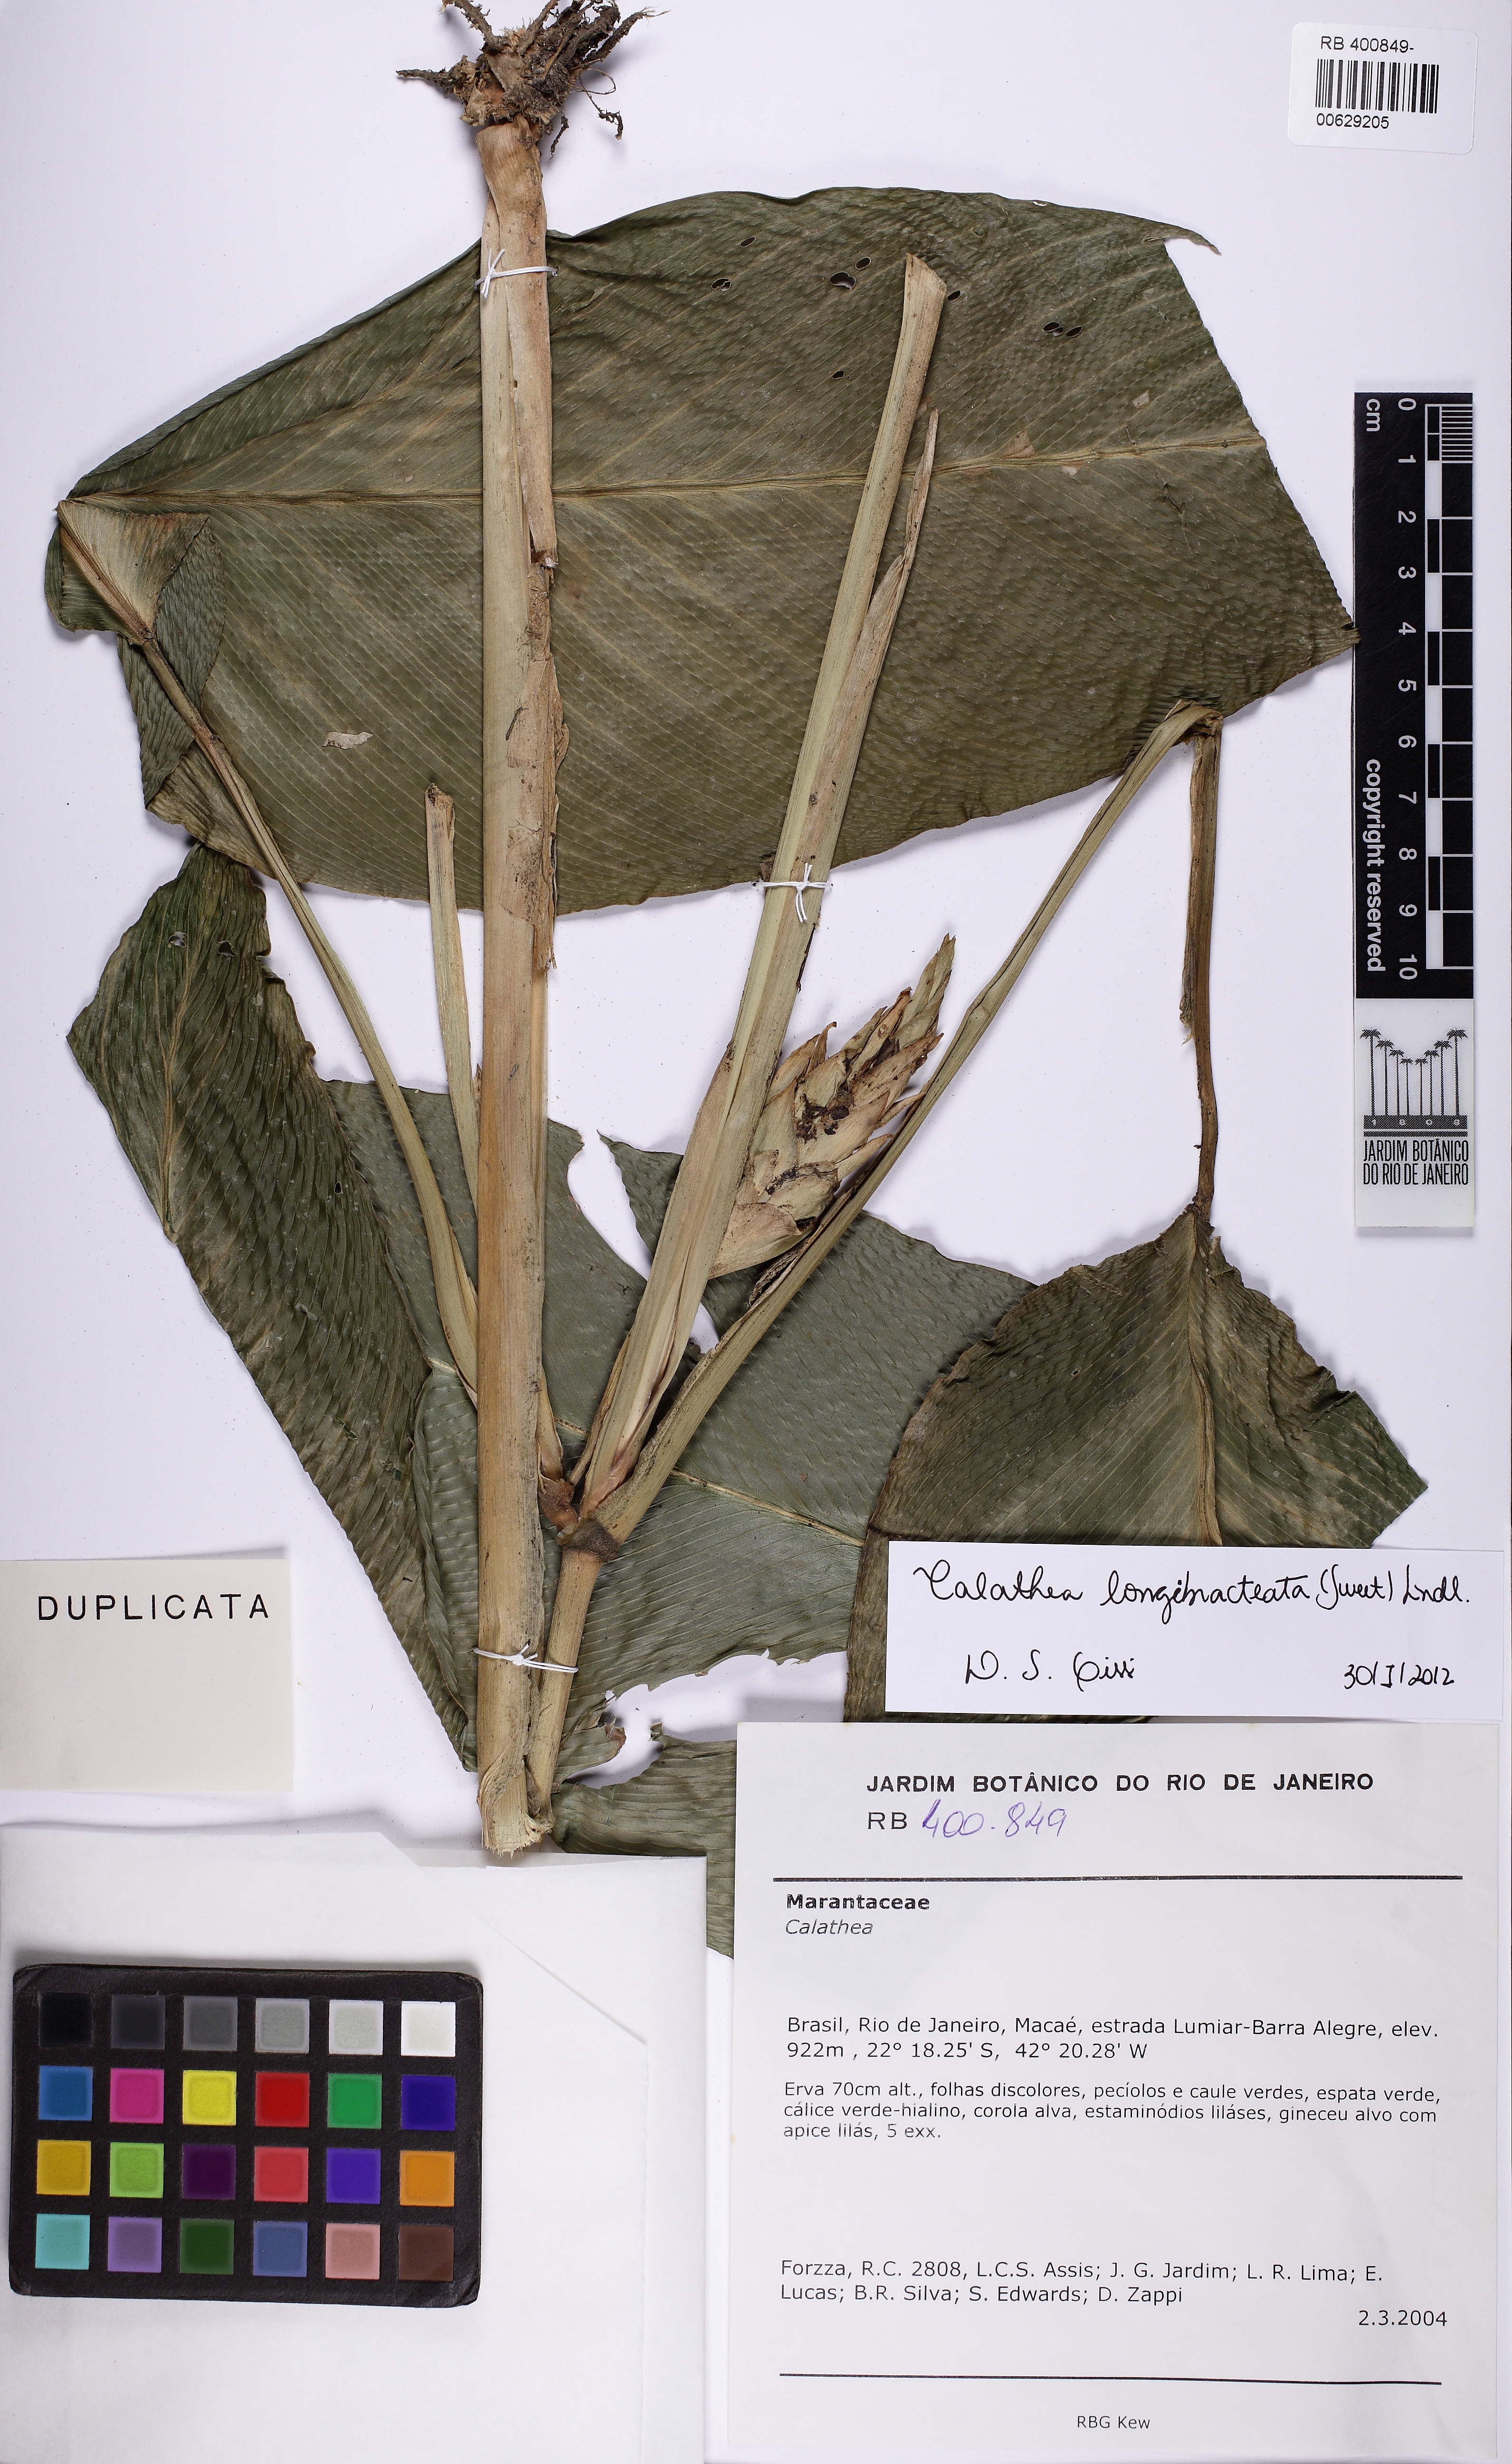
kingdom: Plantae
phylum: Tracheophyta
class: Liliopsida
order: Zingiberales
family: Marantaceae
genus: Goeppertia
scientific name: Goeppertia longibracteata
